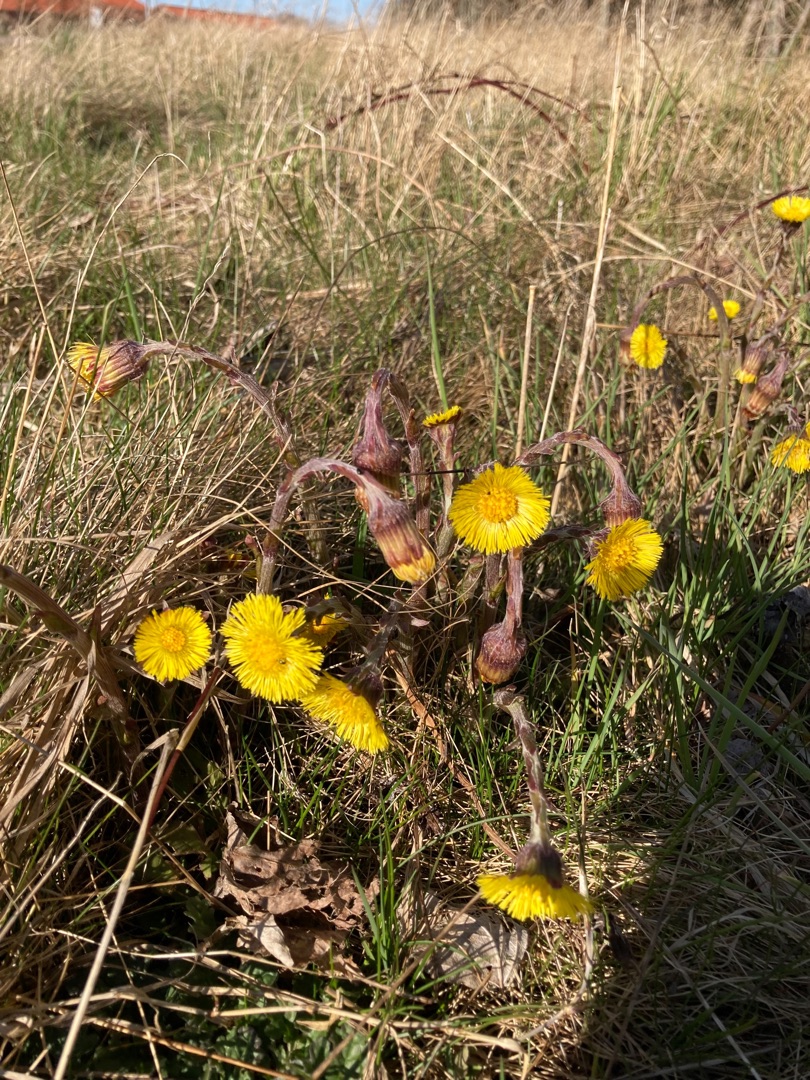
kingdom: Plantae
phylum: Tracheophyta
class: Magnoliopsida
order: Asterales
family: Asteraceae
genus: Tussilago
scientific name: Tussilago farfara
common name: Følfod
